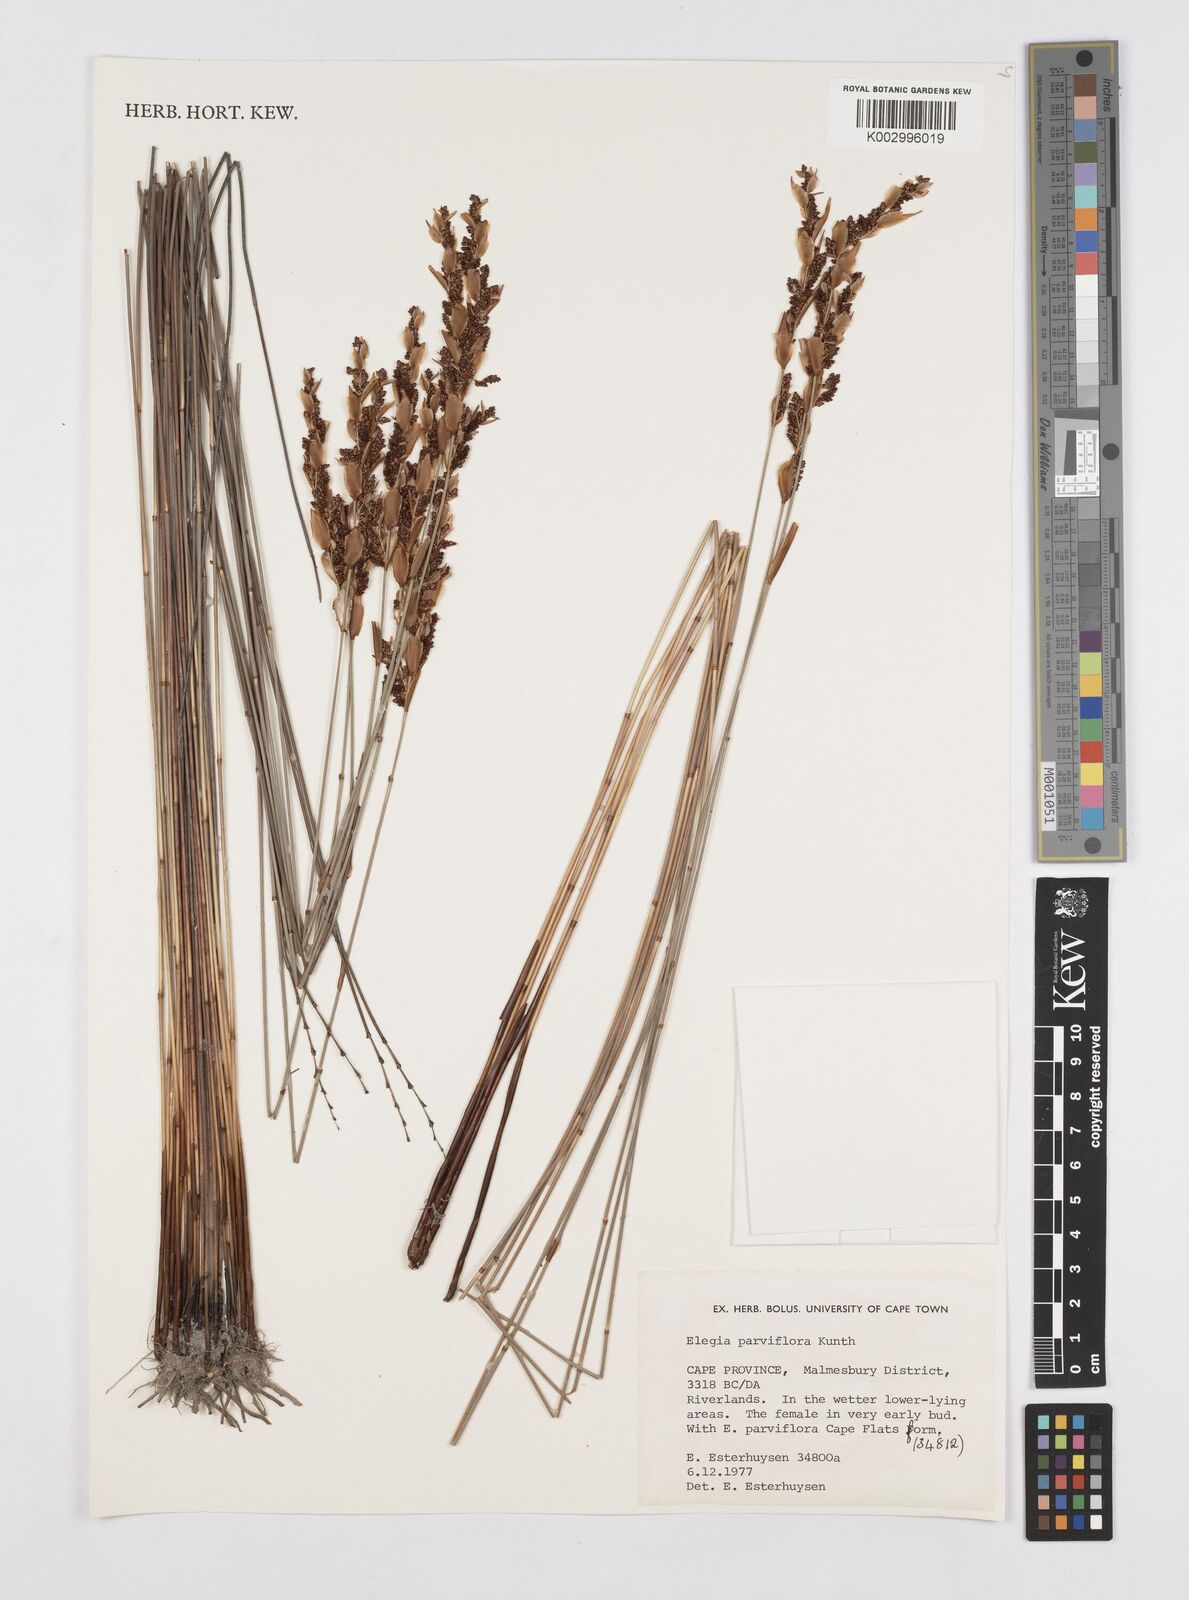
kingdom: Plantae
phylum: Tracheophyta
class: Liliopsida
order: Poales
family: Restionaceae
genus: Cannomois
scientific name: Cannomois parviflora
